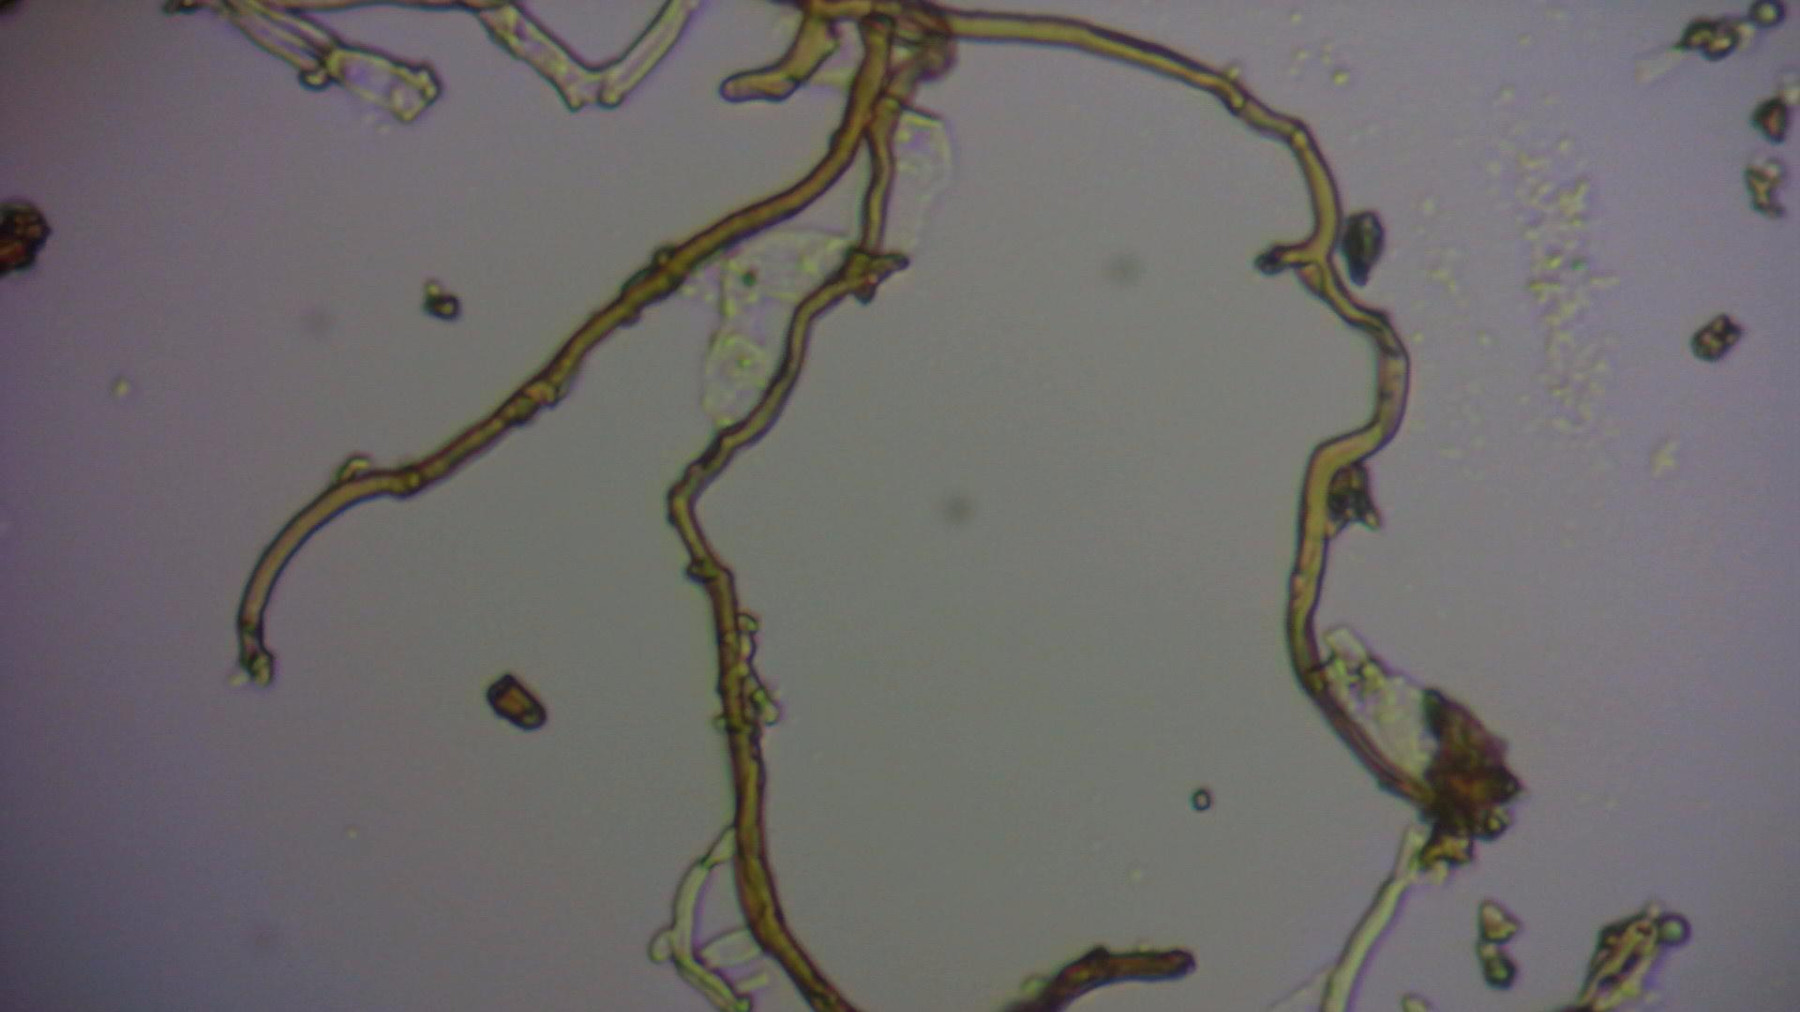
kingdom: Fungi
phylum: Basidiomycota
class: Agaricomycetes
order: Hymenochaetales
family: Hymenochaetaceae
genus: Phellinus
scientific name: Phellinus pomaceus
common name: blomme-ildporesvamp
